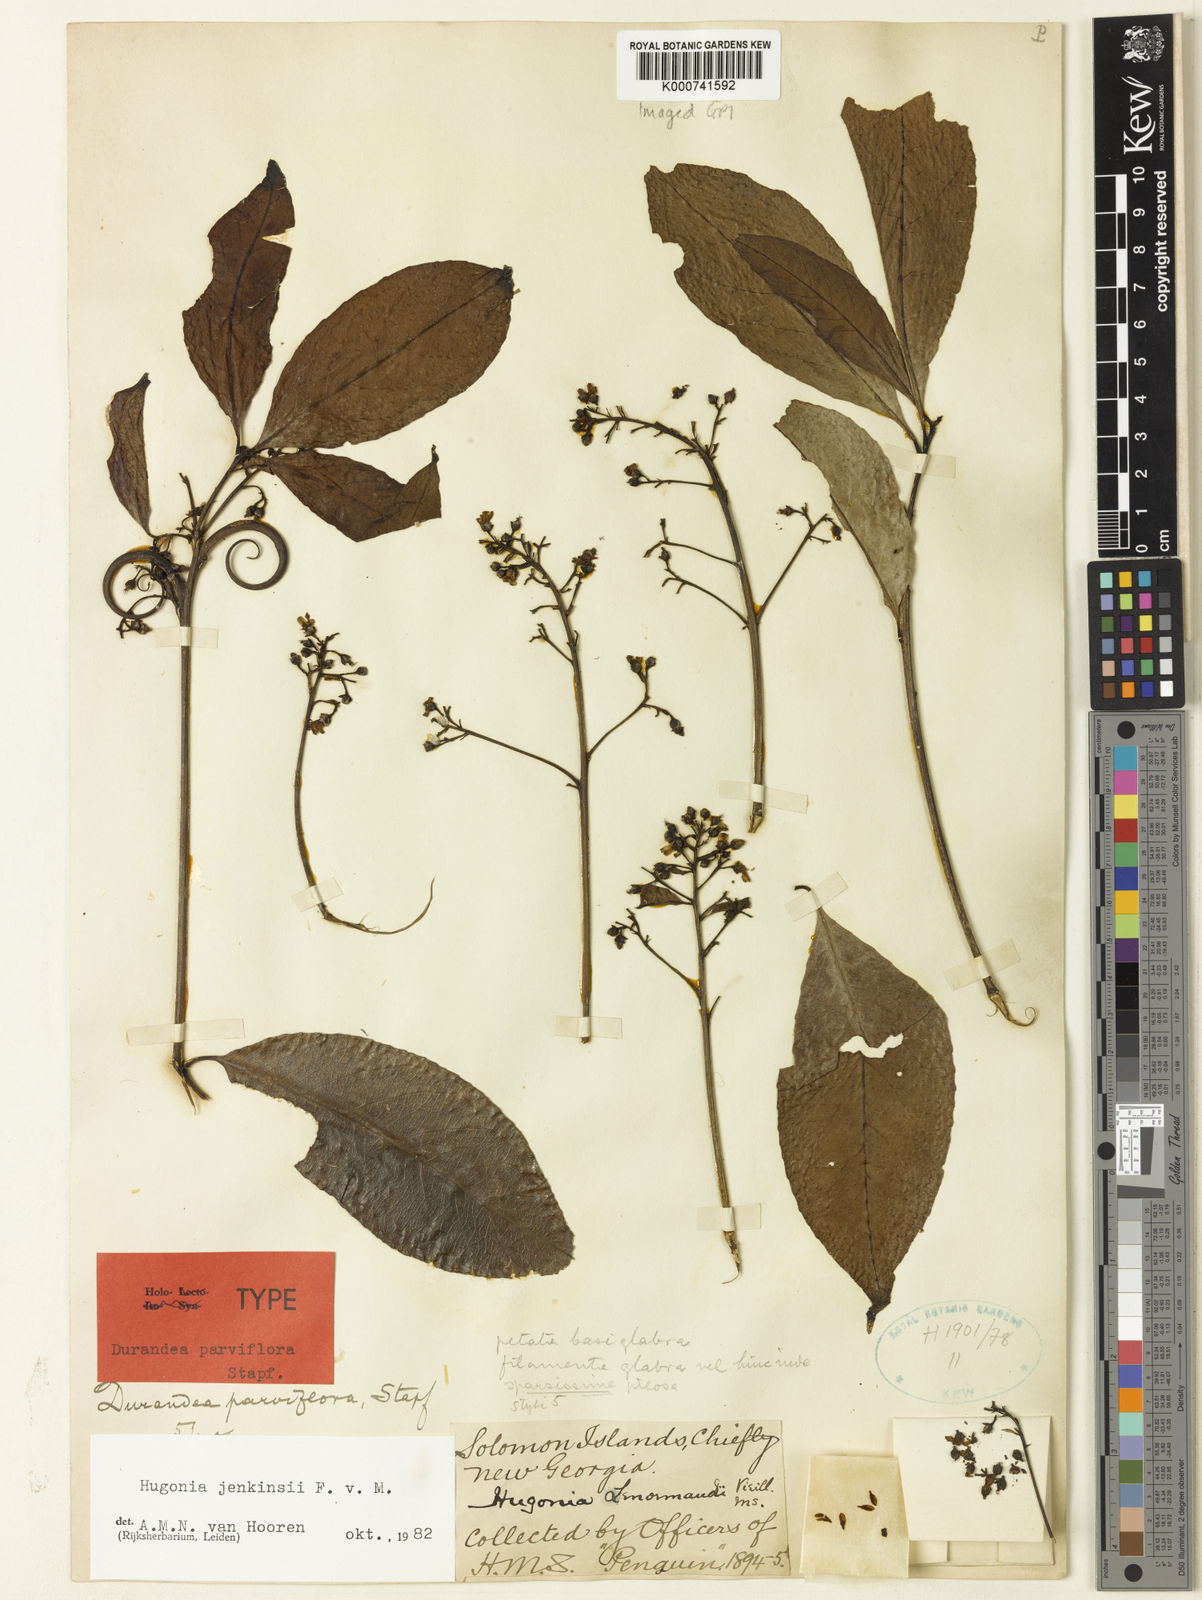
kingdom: Plantae
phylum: Tracheophyta
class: Magnoliopsida
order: Malpighiales
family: Linaceae
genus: Durandea
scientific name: Durandea jenkinsii
